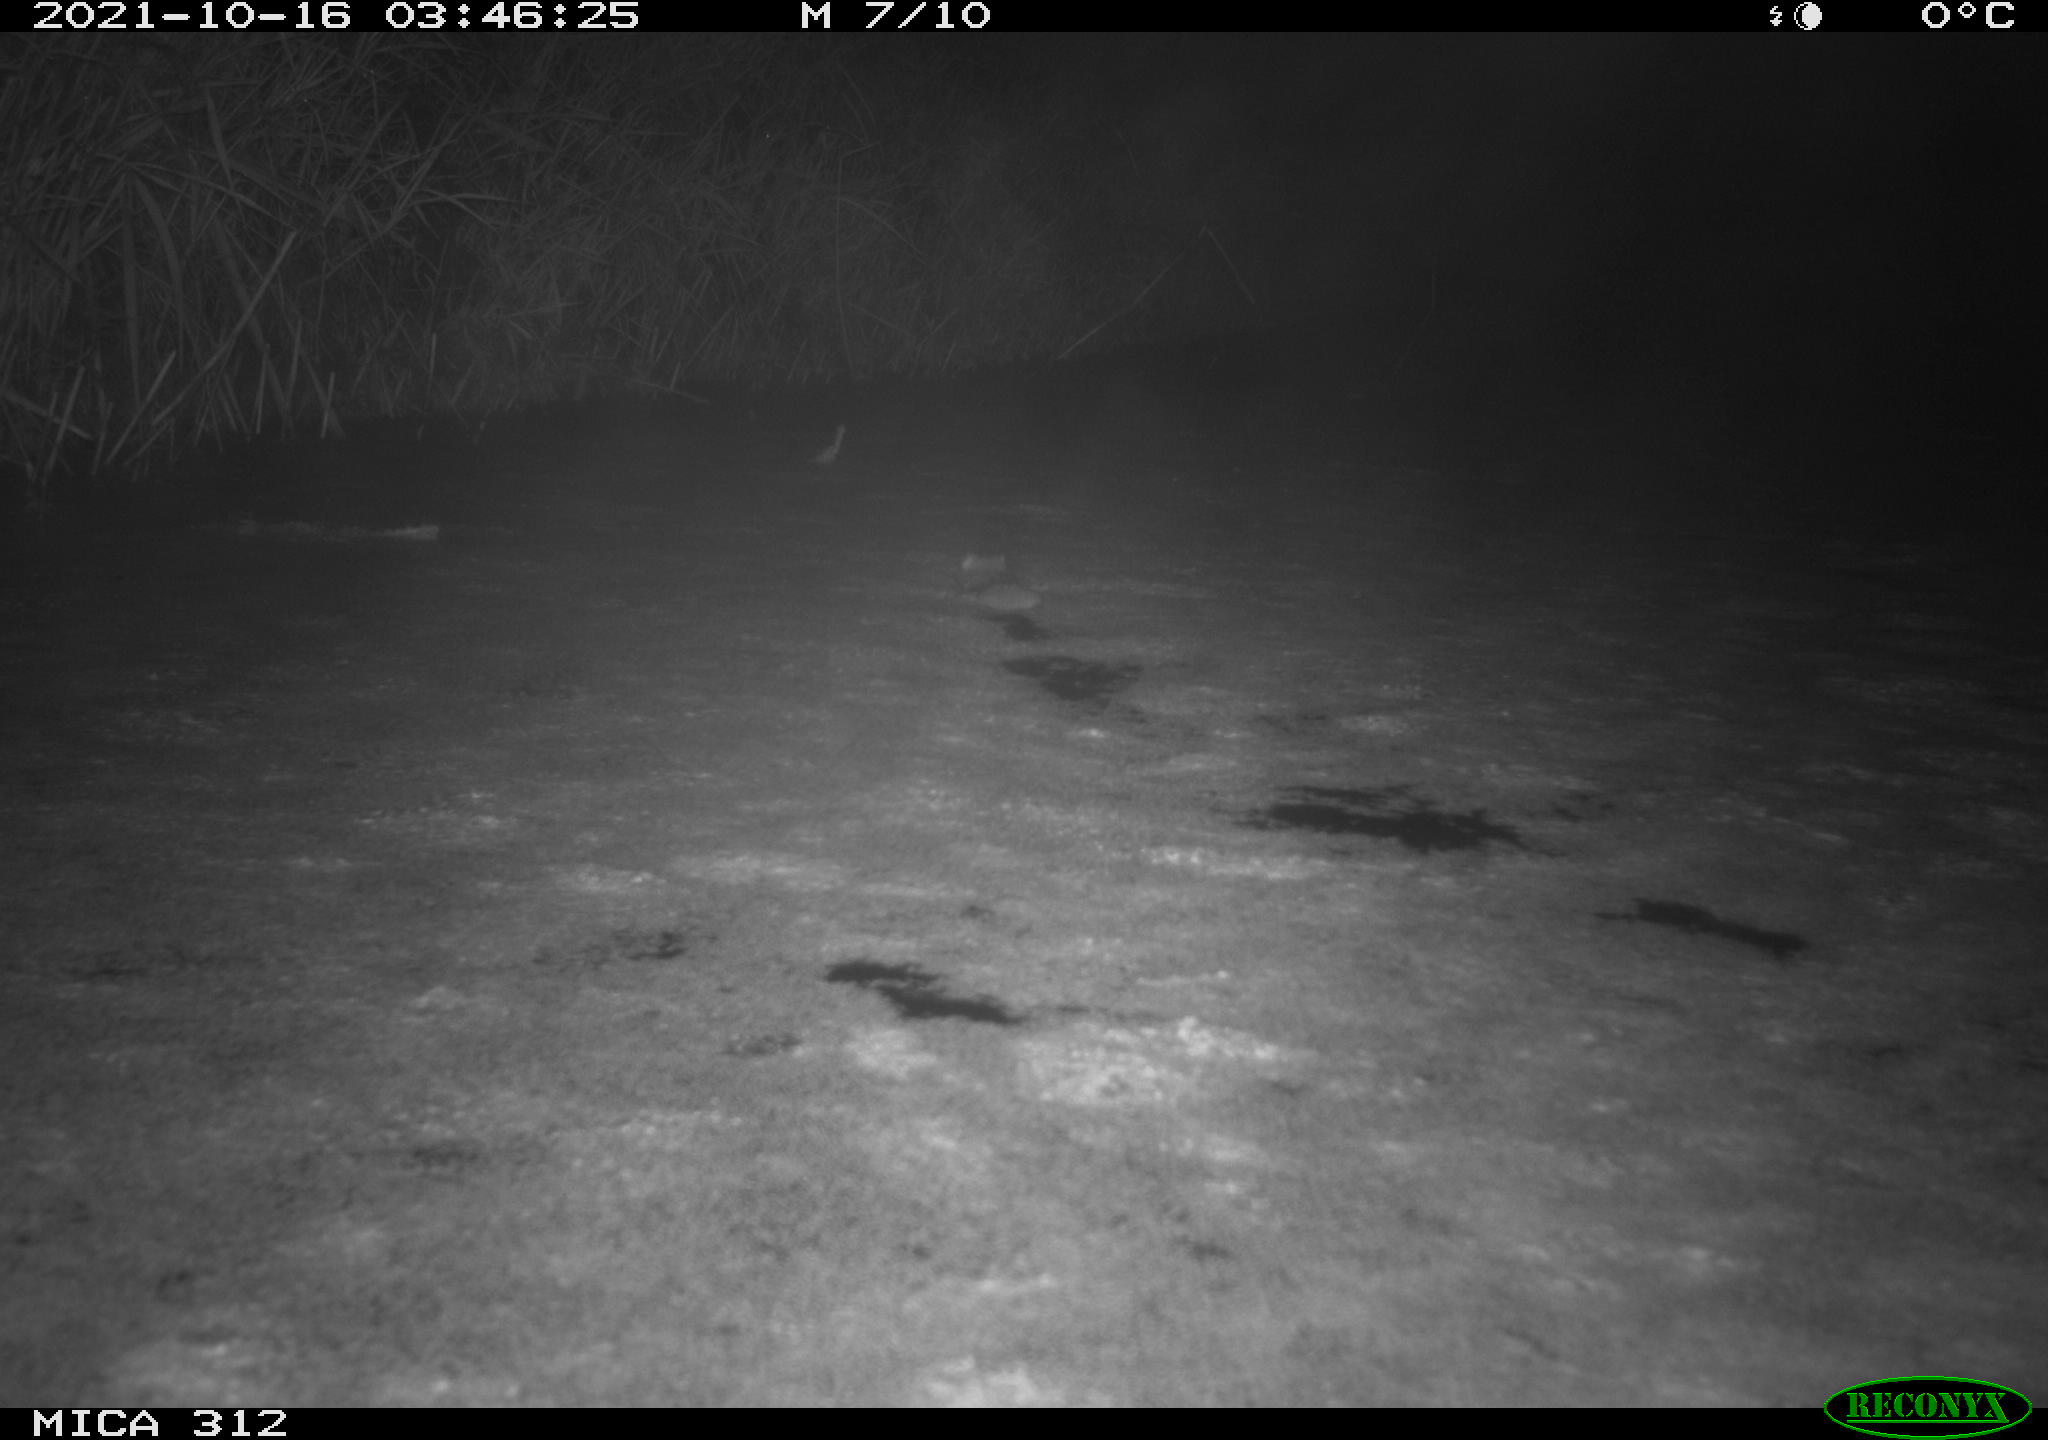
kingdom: Animalia
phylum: Chordata
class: Mammalia
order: Rodentia
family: Muridae
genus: Rattus
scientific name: Rattus norvegicus
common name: Brown rat
